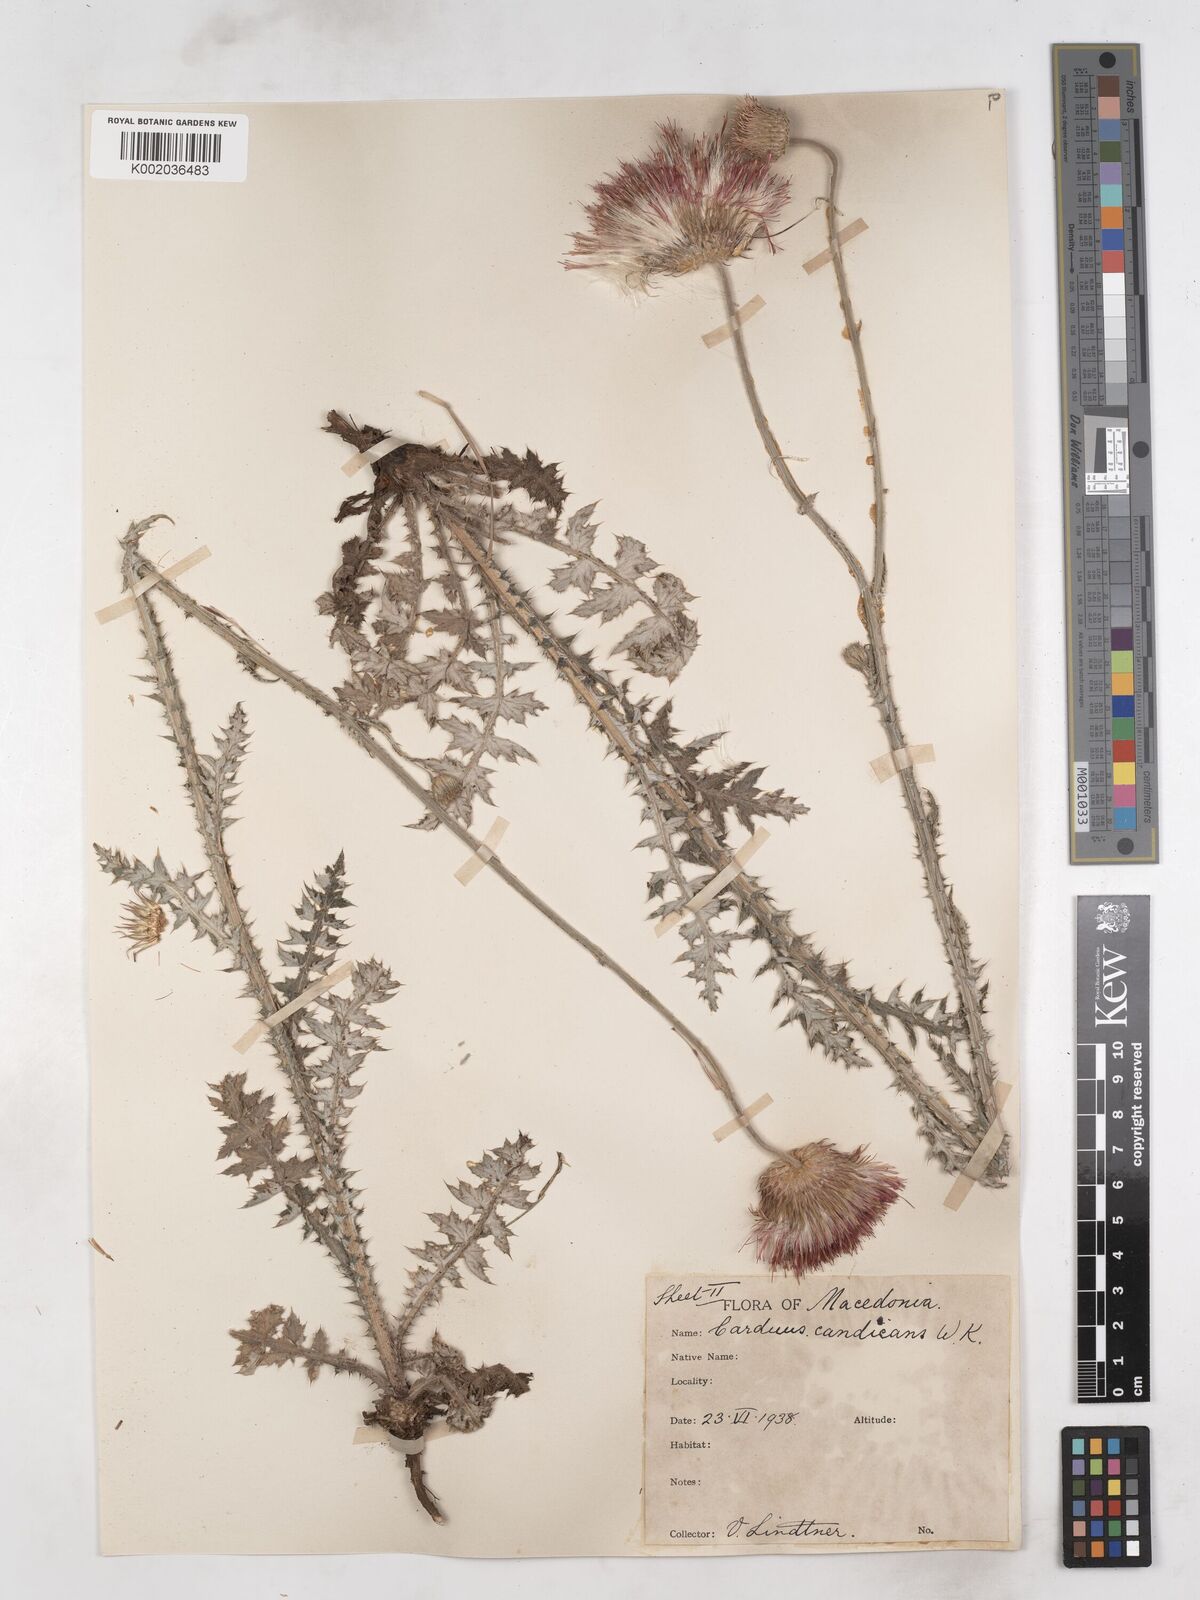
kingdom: Plantae
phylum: Tracheophyta
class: Magnoliopsida
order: Asterales
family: Asteraceae
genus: Carduus
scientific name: Carduus candicans
